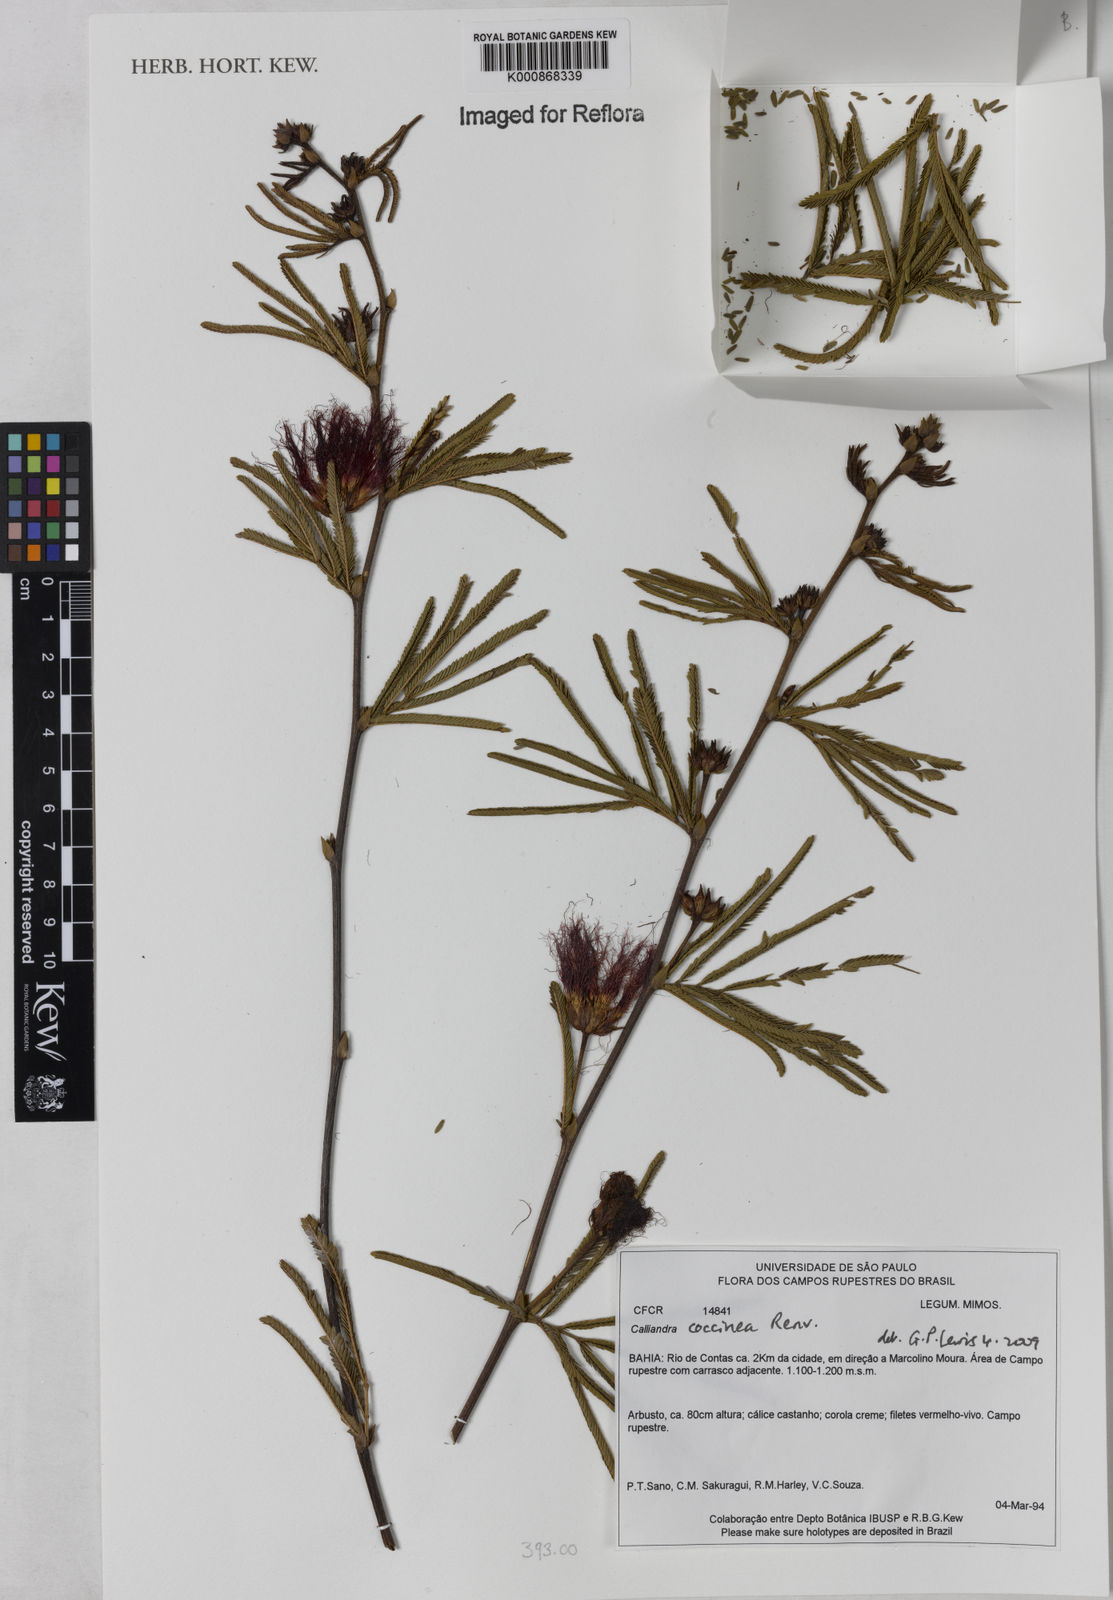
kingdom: Plantae
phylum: Tracheophyta
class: Magnoliopsida
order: Fabales
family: Fabaceae
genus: Calliandra
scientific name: Calliandra coccinea
